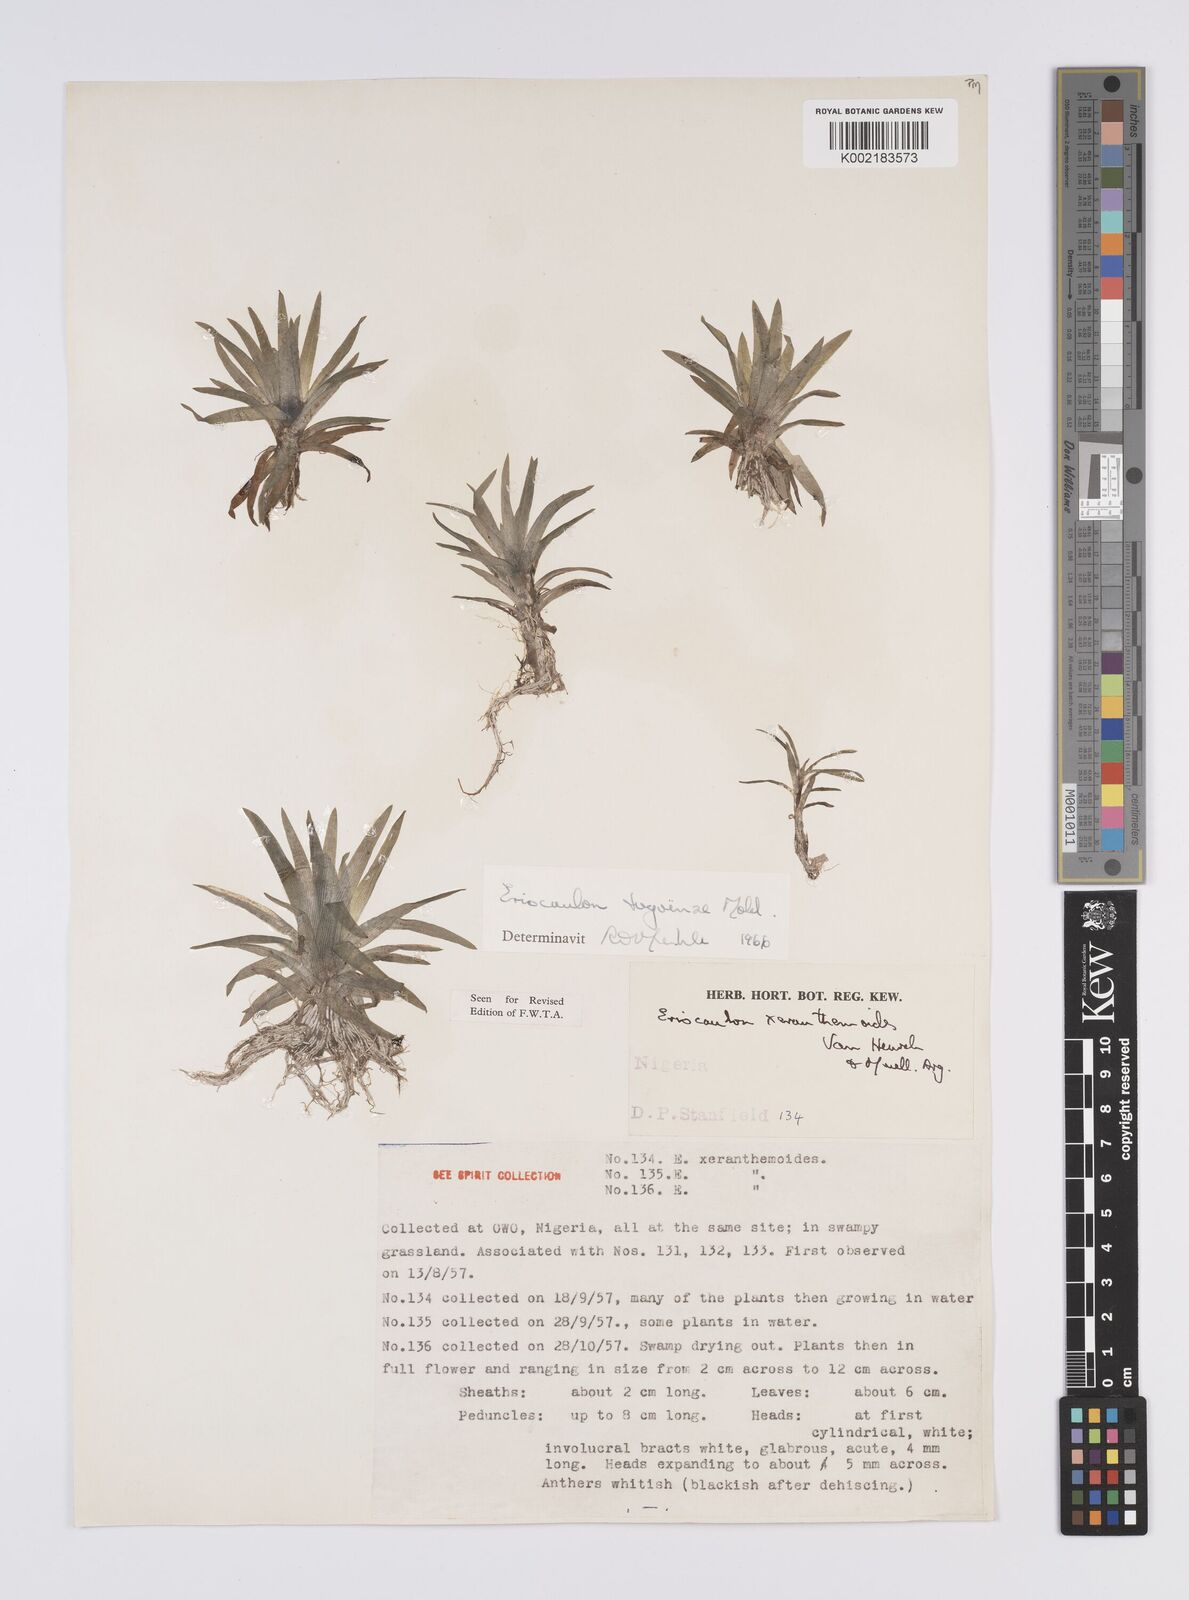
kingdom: Plantae
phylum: Tracheophyta
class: Liliopsida
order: Poales
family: Eriocaulaceae
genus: Eriocaulon
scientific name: Eriocaulon togoense
